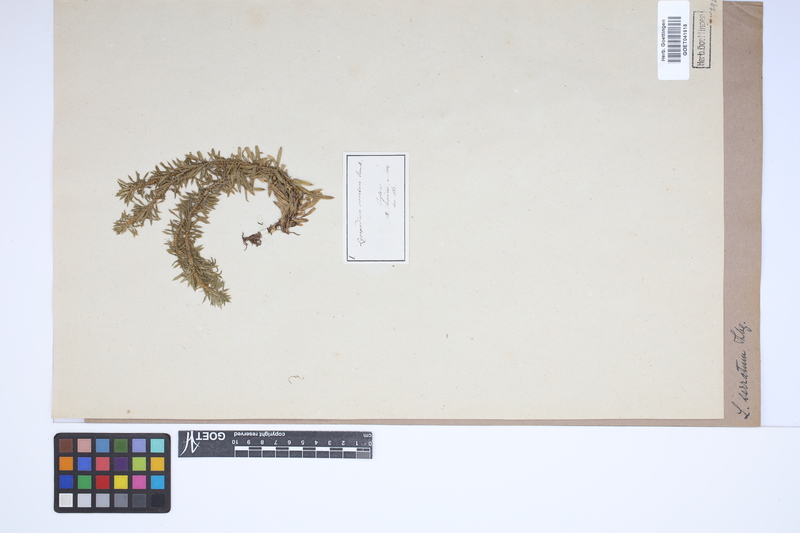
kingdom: Plantae
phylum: Tracheophyta
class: Lycopodiopsida
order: Lycopodiales
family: Lycopodiaceae
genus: Huperzia
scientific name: Huperzia serrata
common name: Toothed club-moss
